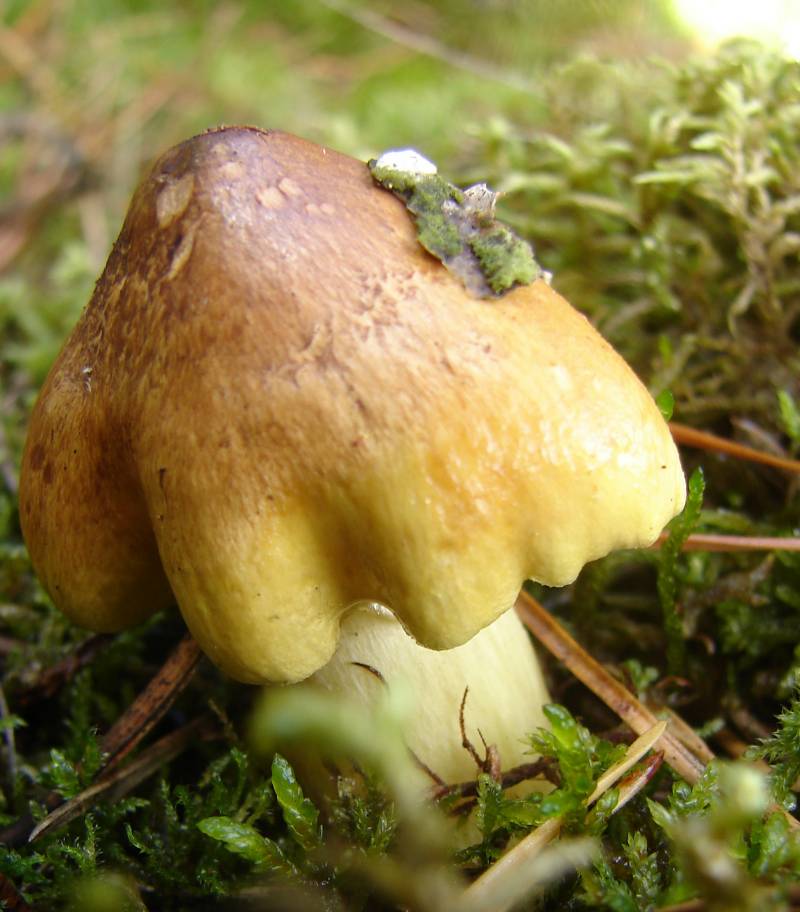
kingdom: Fungi
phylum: Basidiomycota
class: Agaricomycetes
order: Agaricales
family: Tricholomataceae
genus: Tricholoma
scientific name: Tricholoma aestuans
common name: kegle-ridderhat
